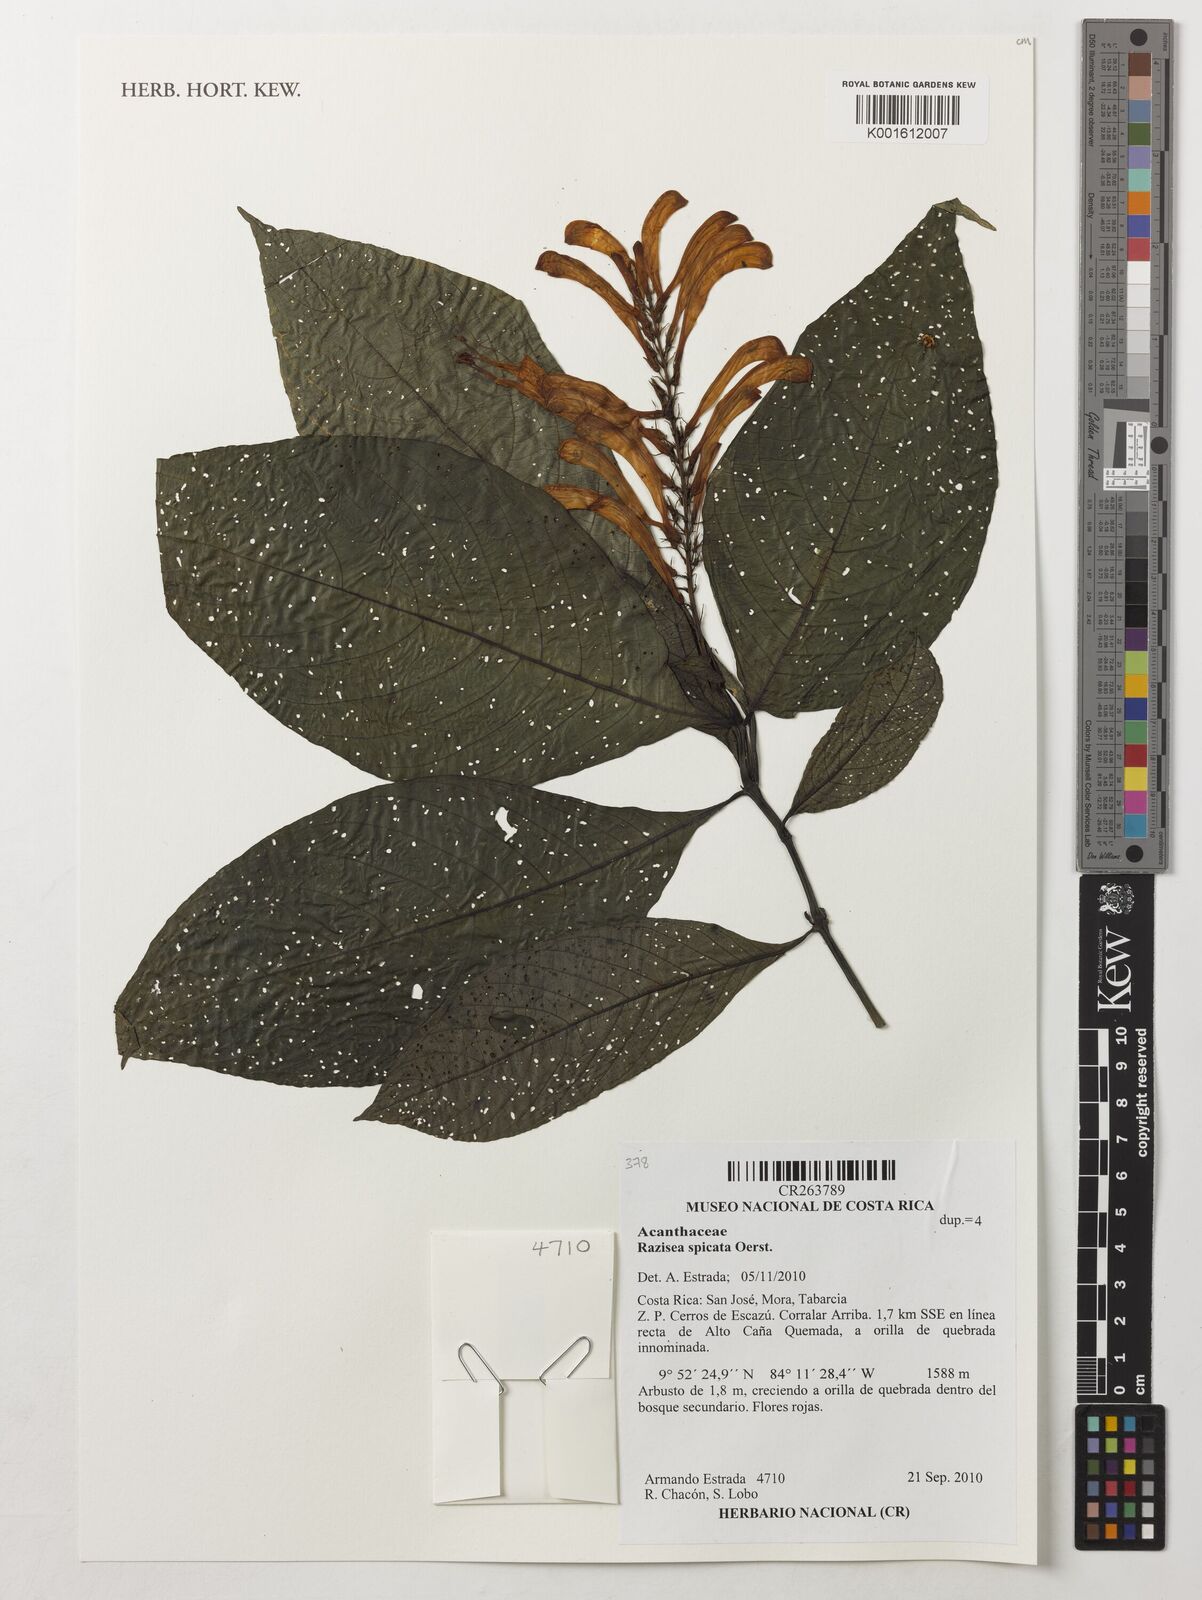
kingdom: Plantae
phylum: Tracheophyta
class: Magnoliopsida
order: Lamiales
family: Acanthaceae
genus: Stenostephanus
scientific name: Stenostephanus leiorhachis
